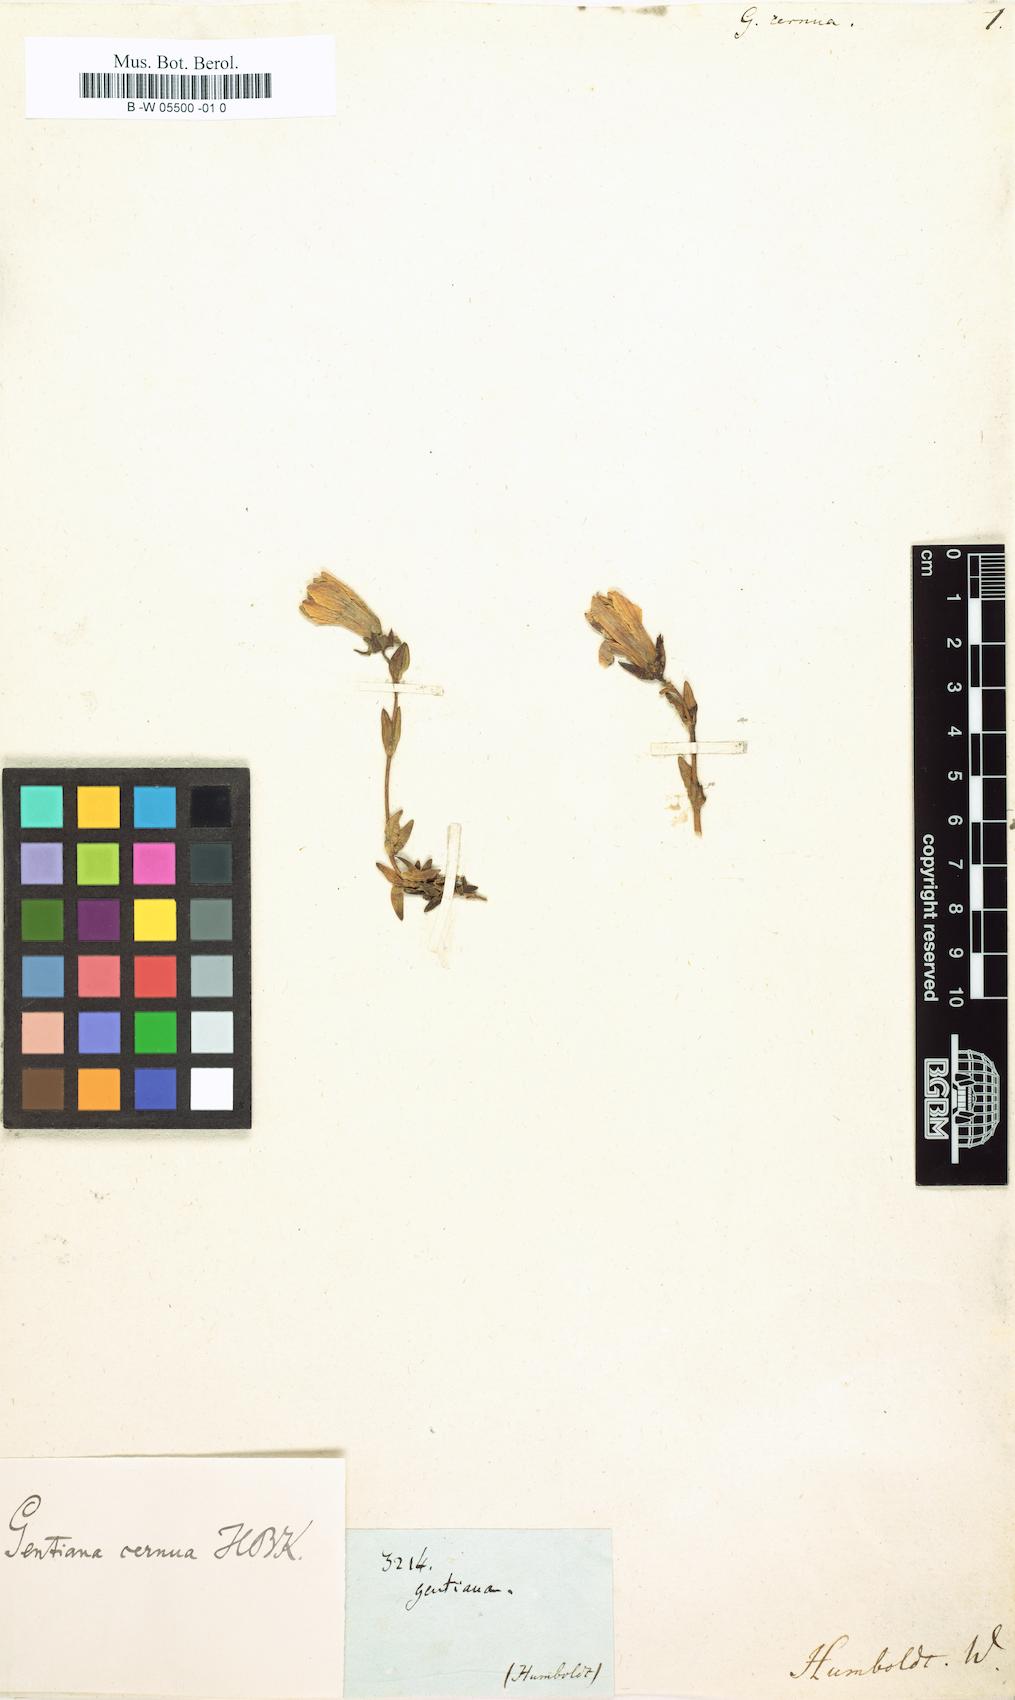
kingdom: Plantae
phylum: Tracheophyta
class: Magnoliopsida
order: Gentianales
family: Gentianaceae
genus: Gentianella
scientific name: Gentianella cernua
